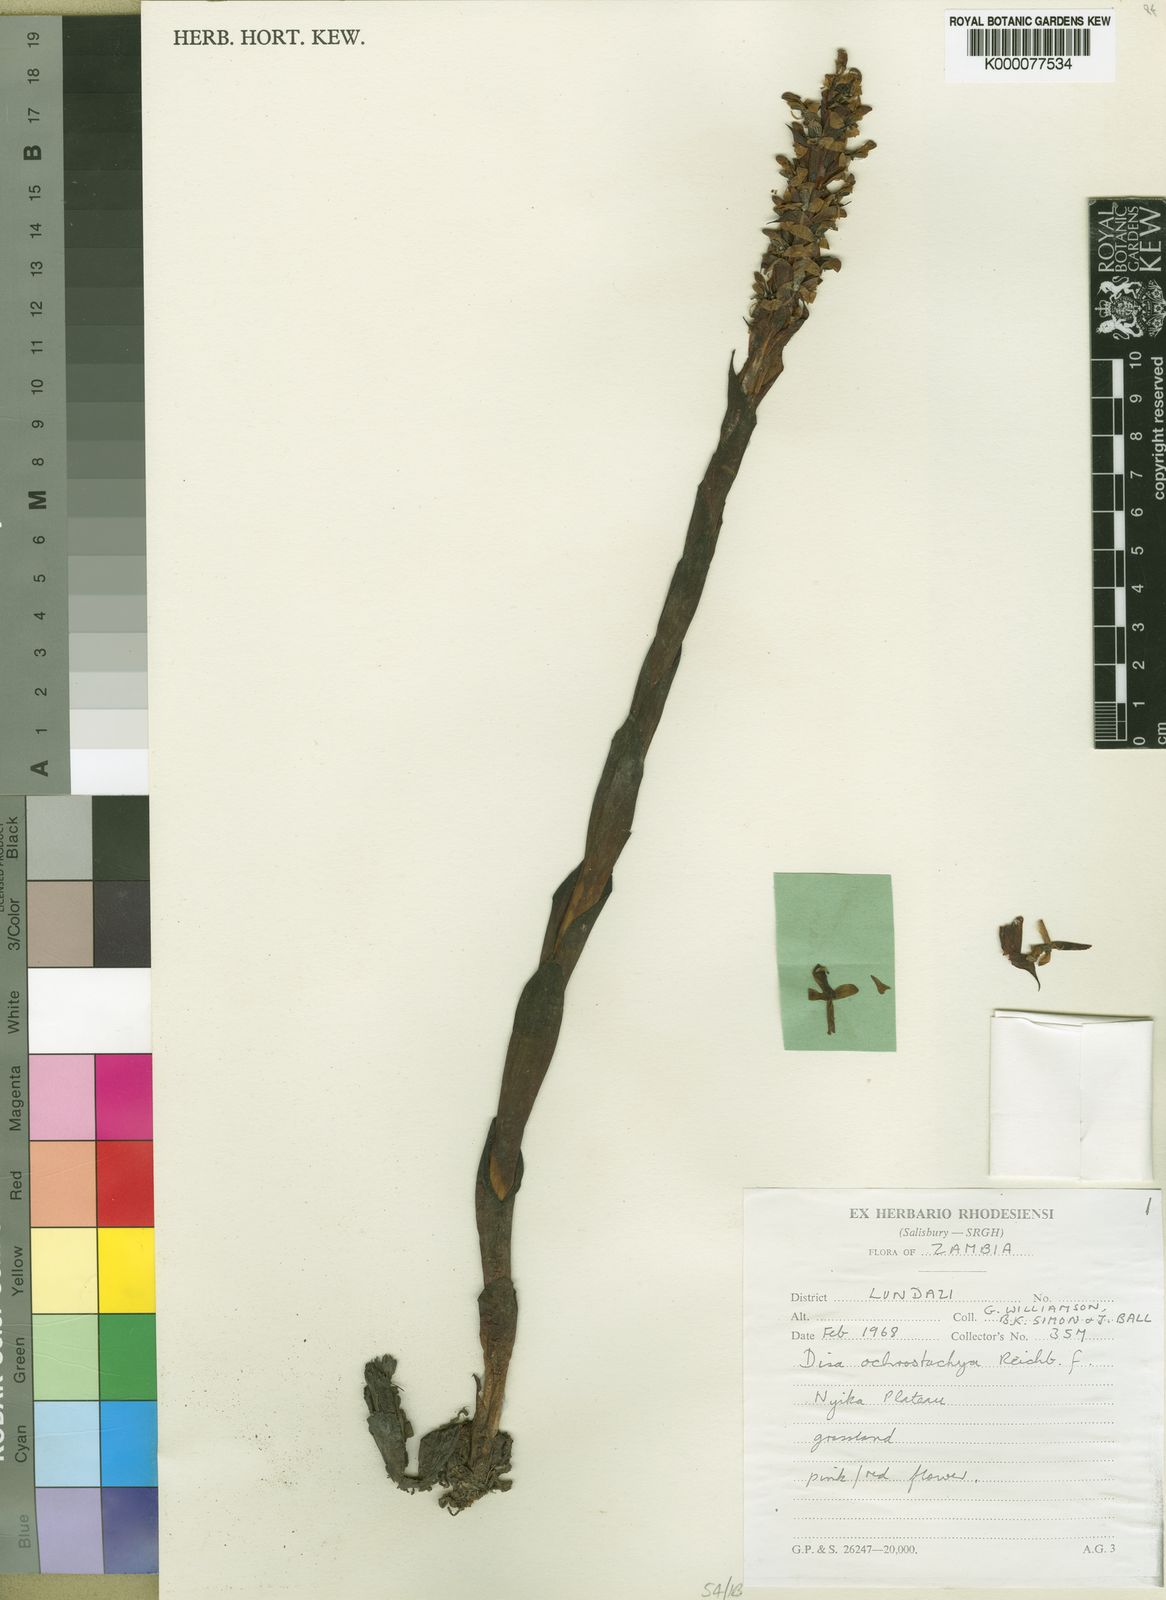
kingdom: Plantae
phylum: Tracheophyta
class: Liliopsida
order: Asparagales
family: Orchidaceae
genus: Disa
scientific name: Disa satyriopsis
